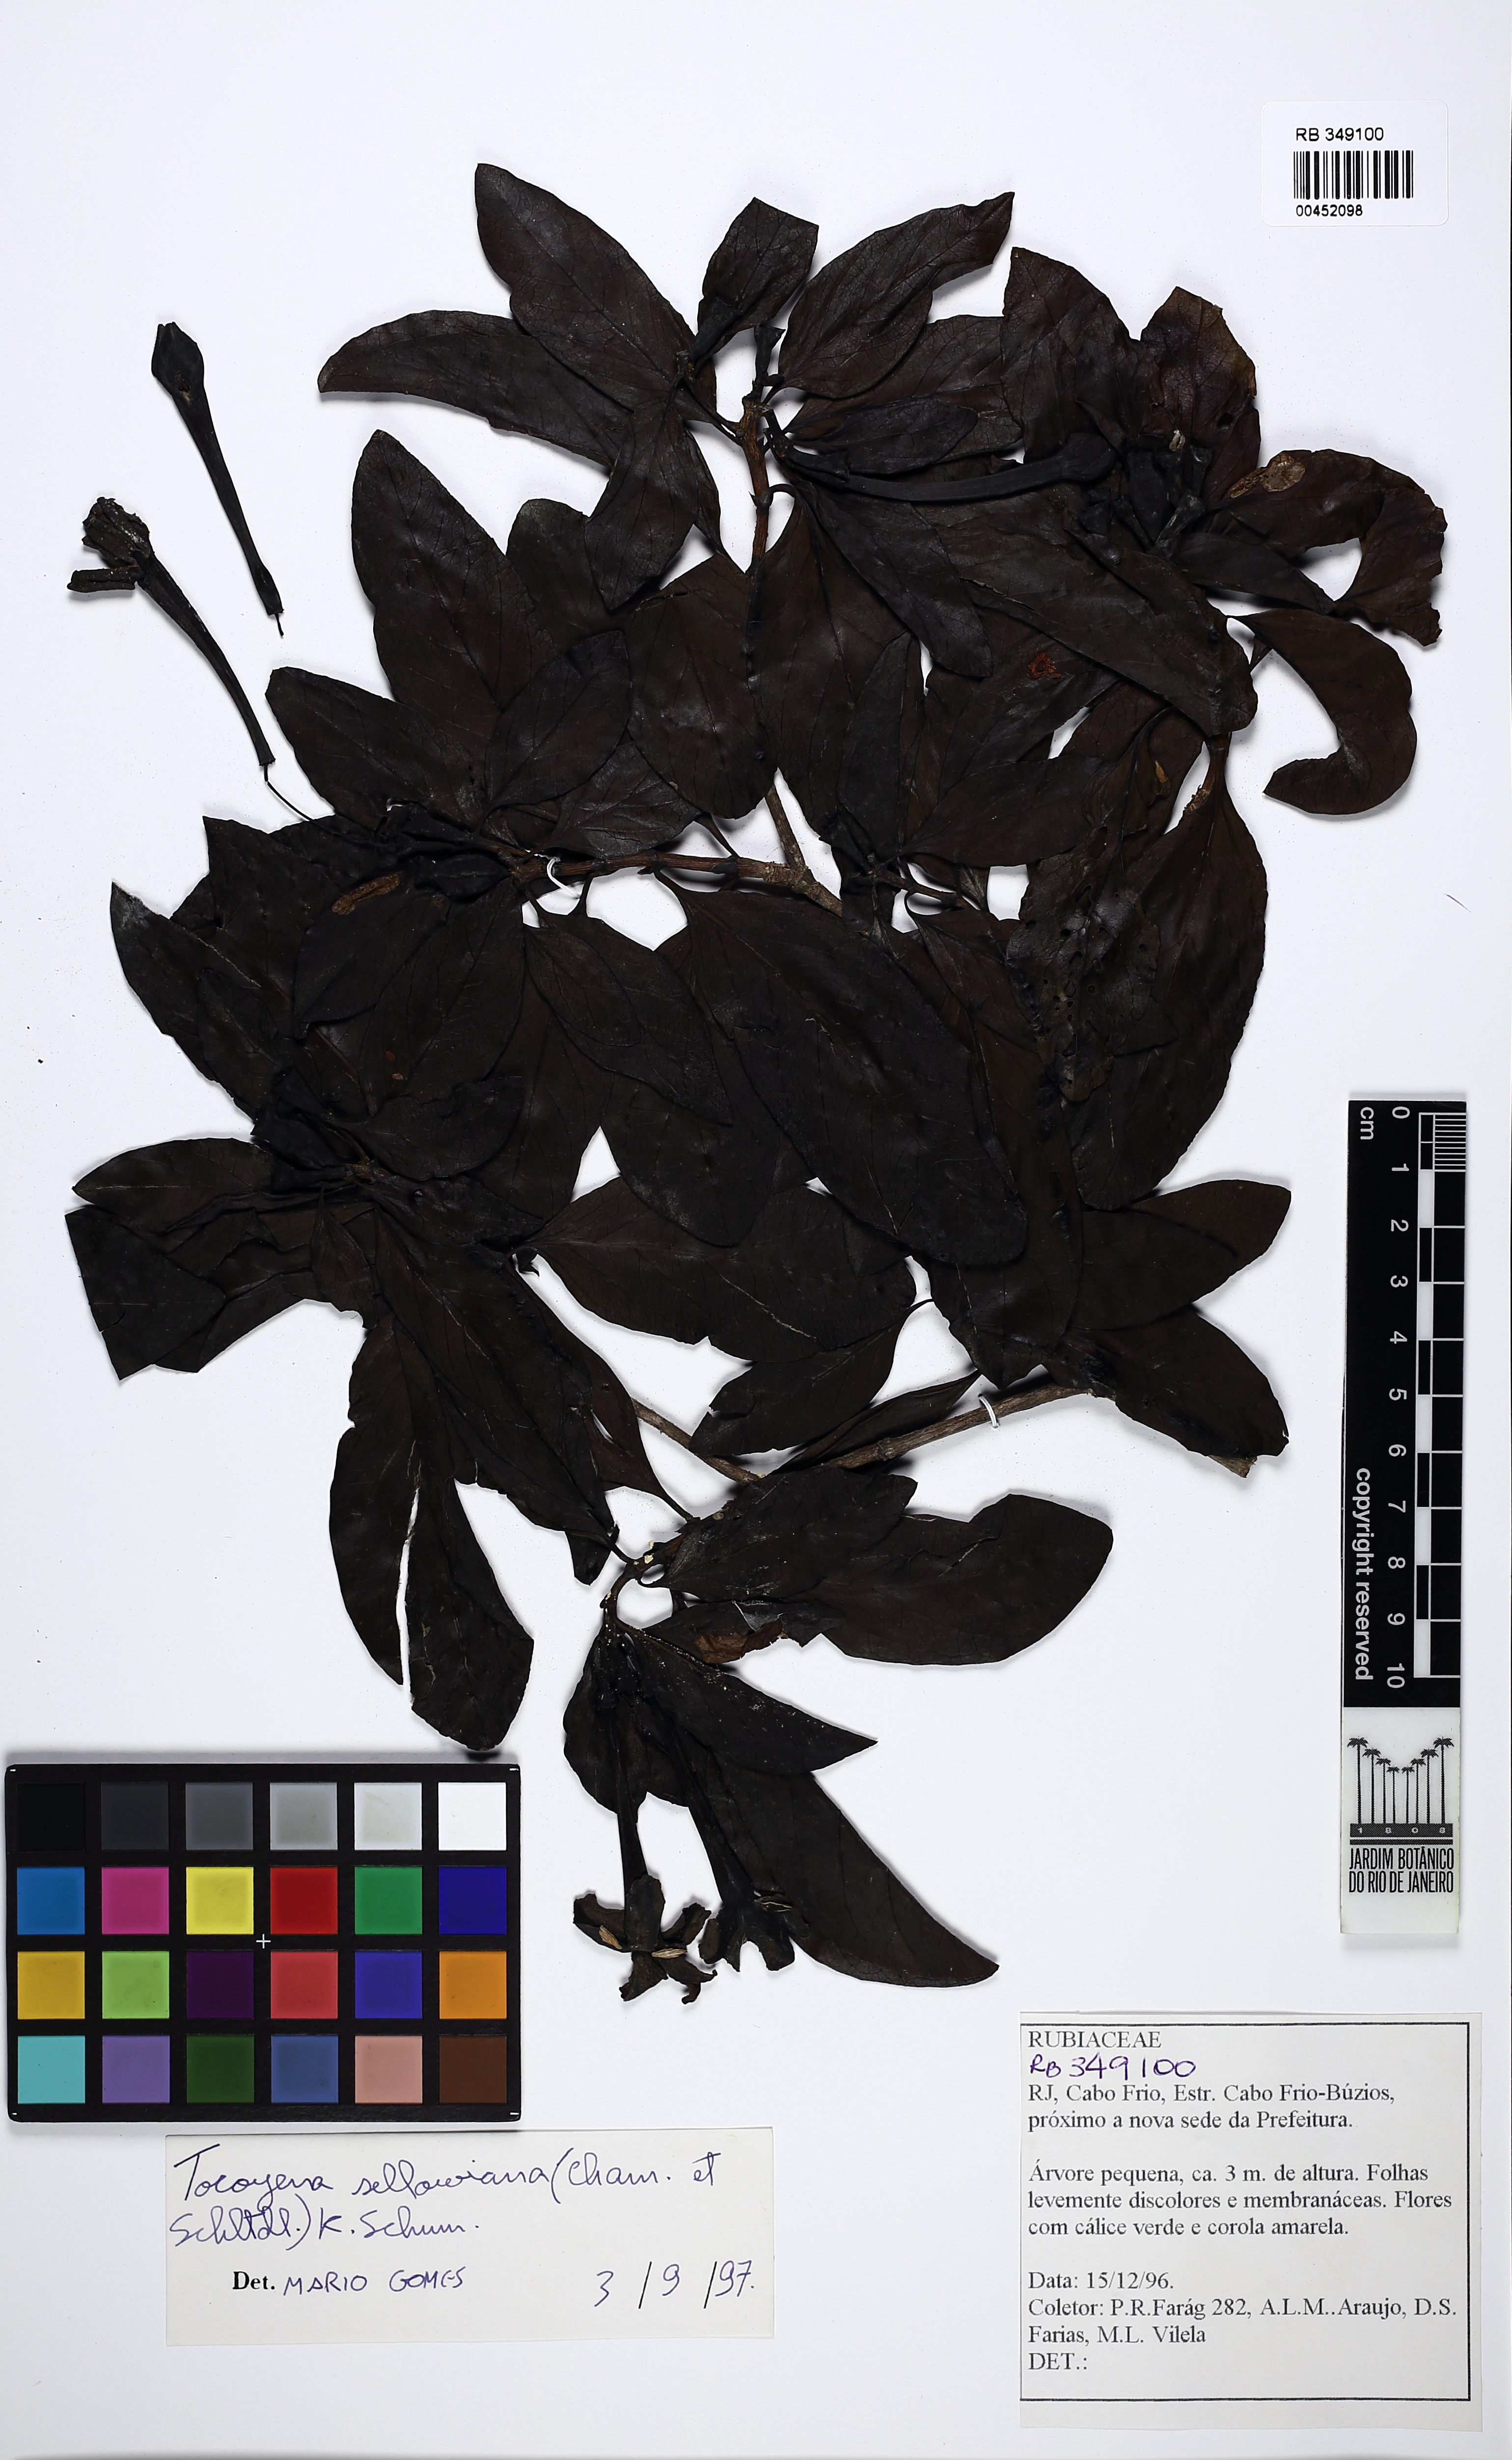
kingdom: Plantae
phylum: Tracheophyta
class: Magnoliopsida
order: Gentianales
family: Rubiaceae
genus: Tocoyena
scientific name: Tocoyena sellowiana
